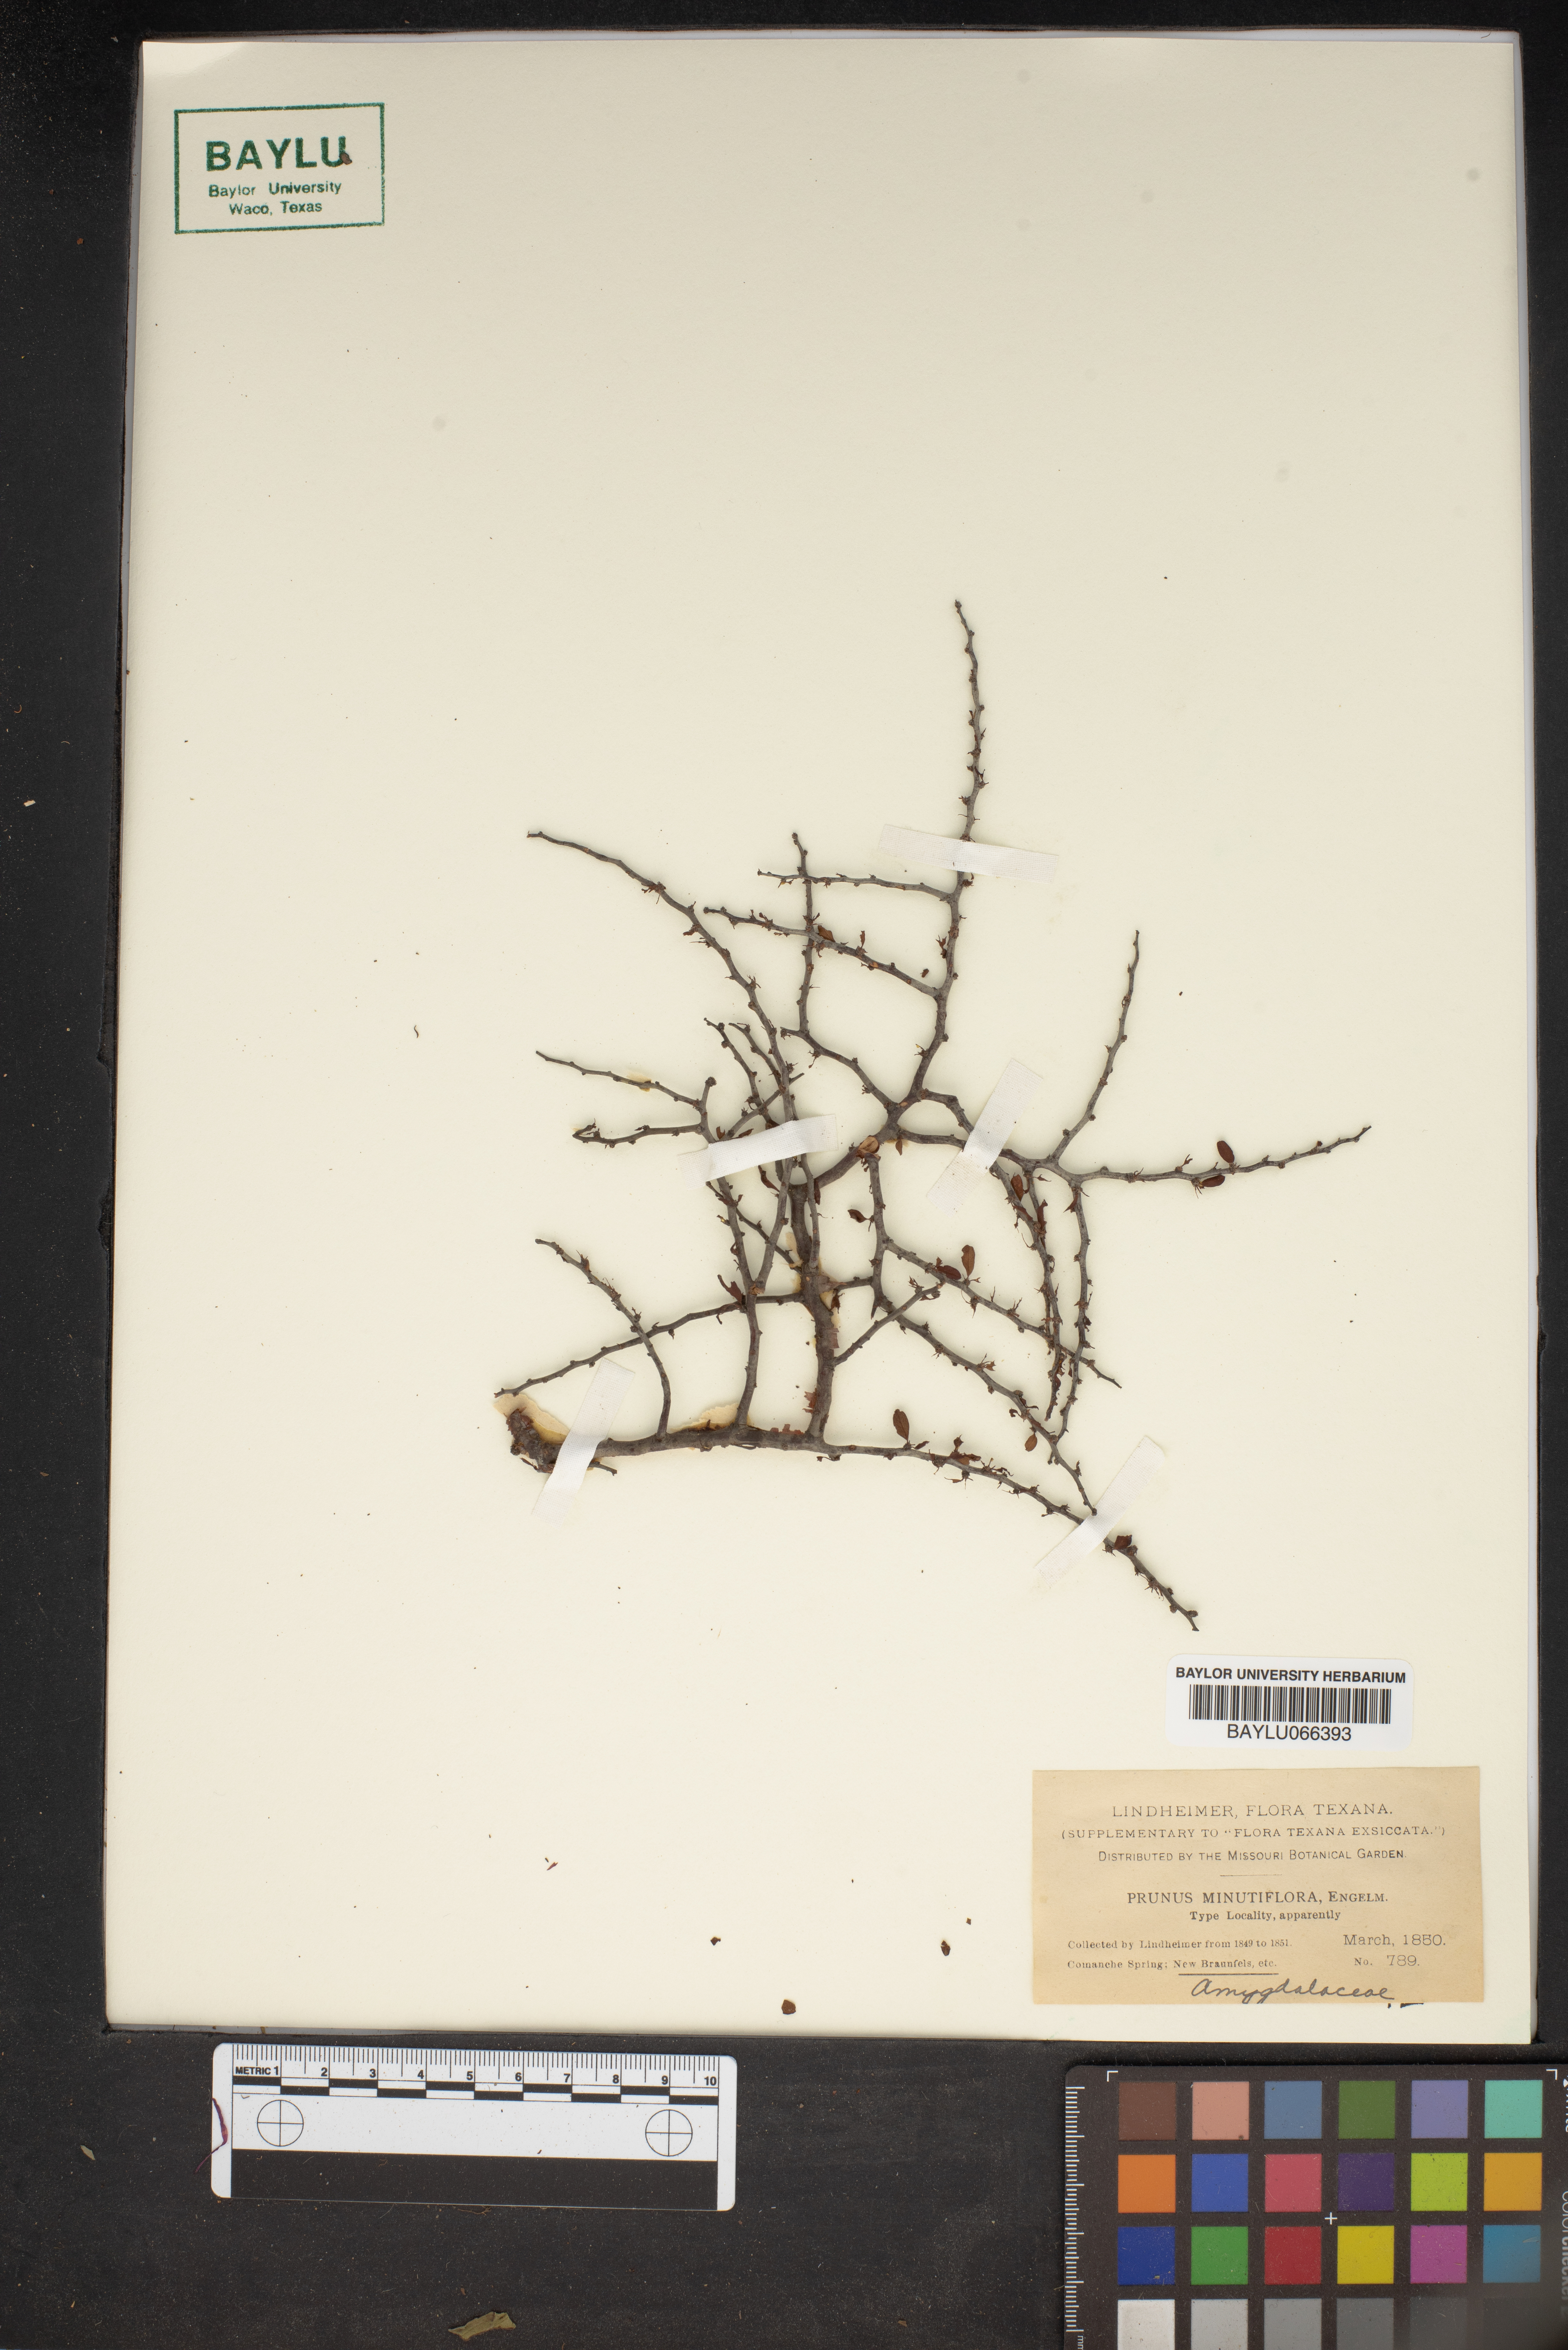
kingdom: Plantae
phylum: Tracheophyta
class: Magnoliopsida
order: Rosales
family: Rosaceae
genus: Prunus
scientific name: Prunus minutiflora
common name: Texas almond
